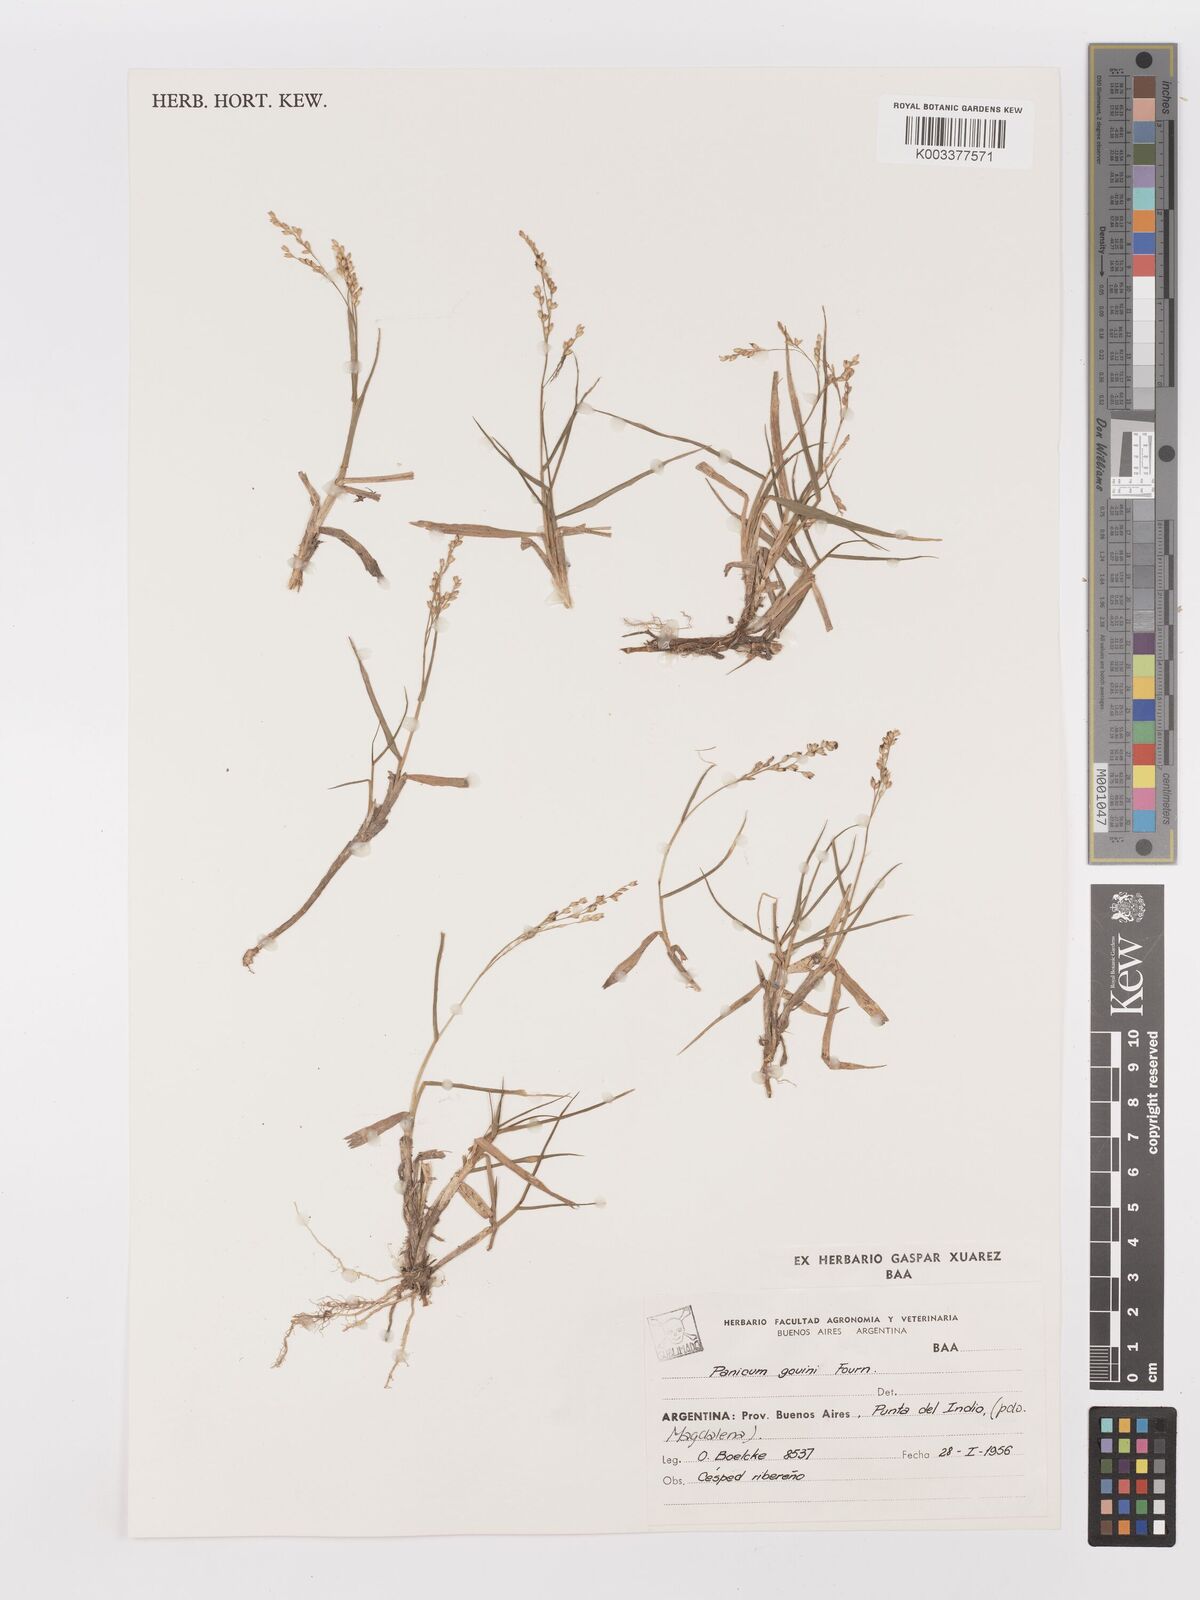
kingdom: Plantae
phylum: Tracheophyta
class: Liliopsida
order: Poales
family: Poaceae
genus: Urochloa
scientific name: Urochloa rudis
